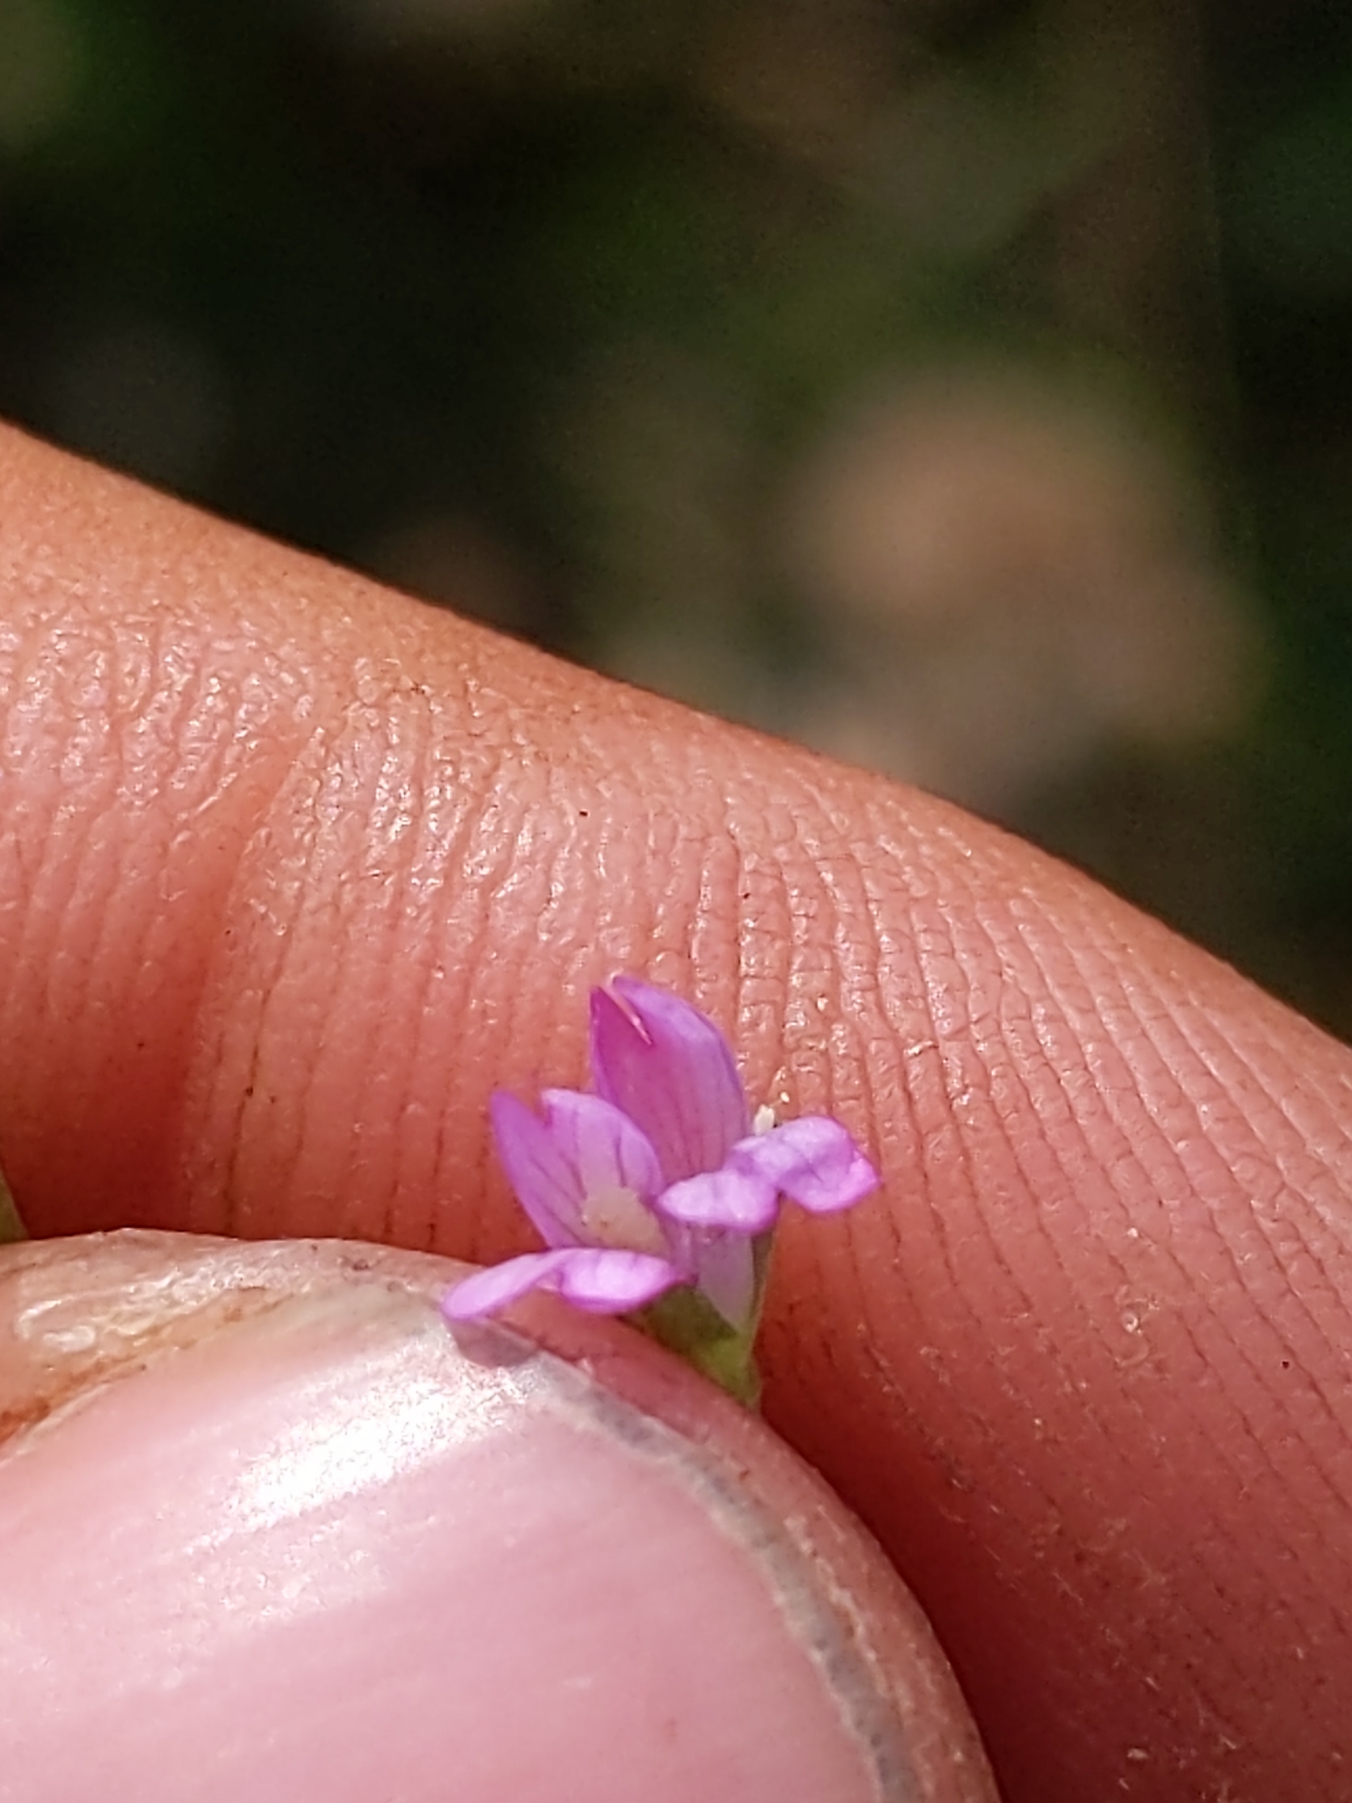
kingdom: Plantae
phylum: Tracheophyta
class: Magnoliopsida
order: Myrtales
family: Onagraceae
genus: Epilobium
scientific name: Epilobium obscurum
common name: Ris-dueurt
